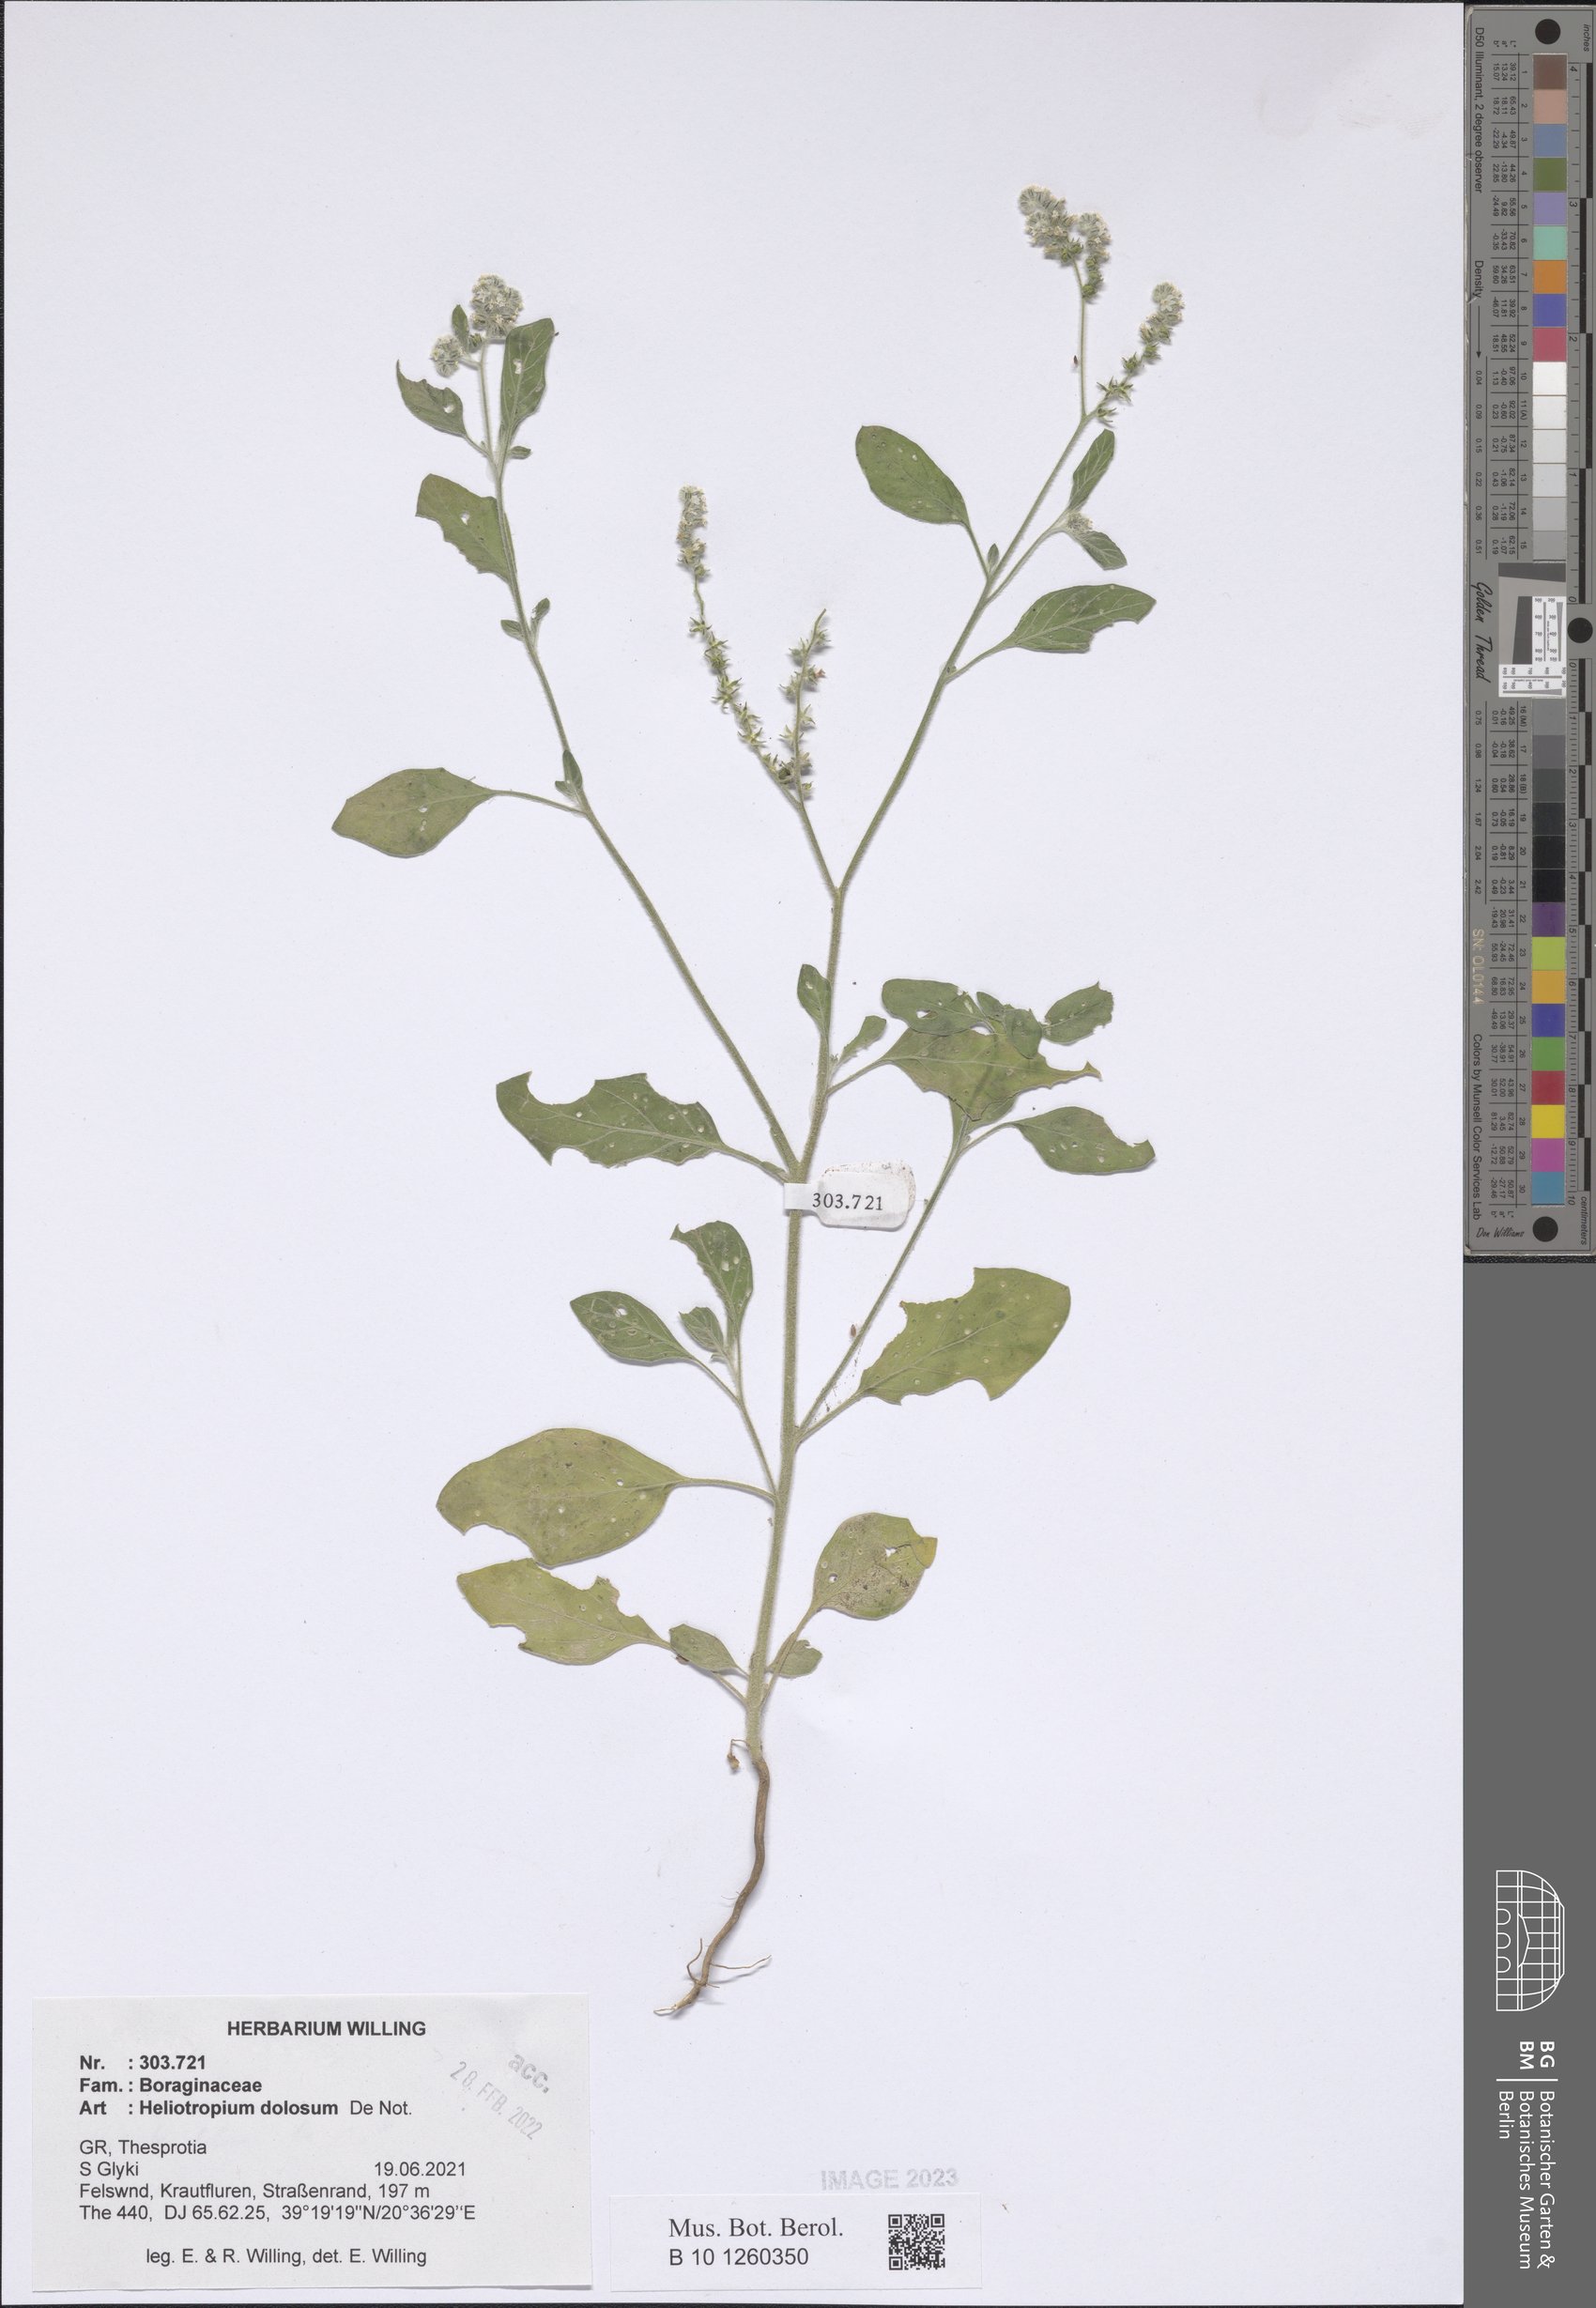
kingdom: Plantae
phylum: Tracheophyta
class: Magnoliopsida
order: Boraginales
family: Heliotropiaceae
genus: Heliotropium
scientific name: Heliotropium dolosum
